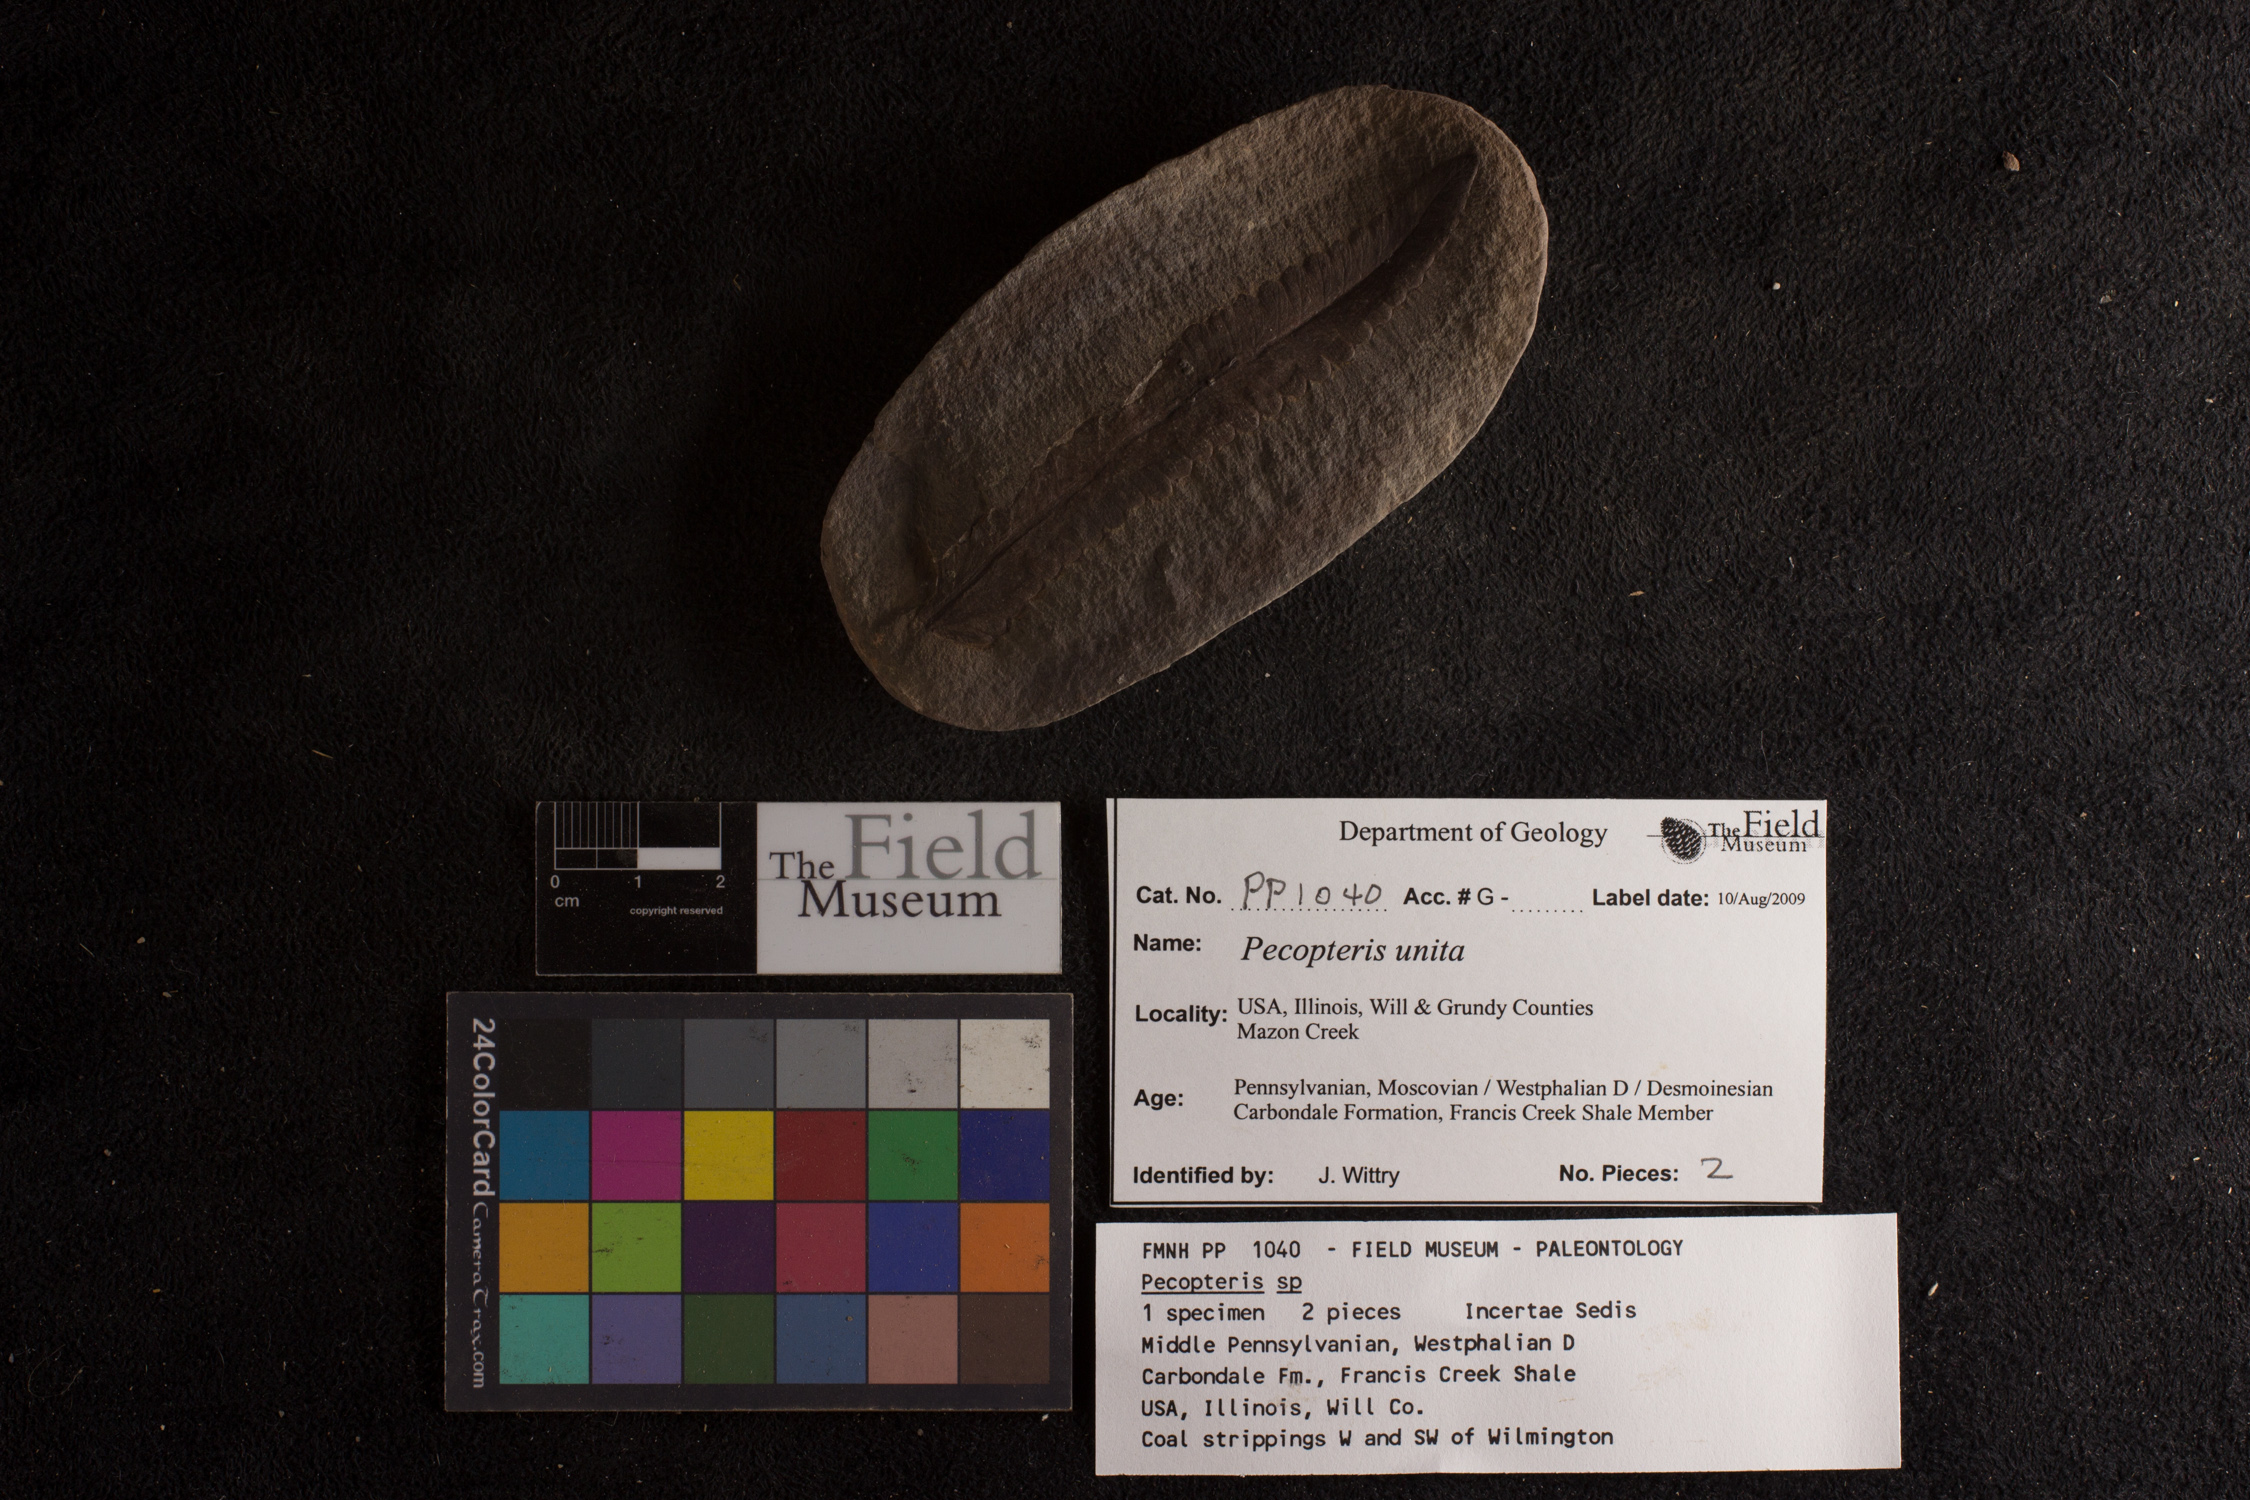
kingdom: Plantae
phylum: Tracheophyta
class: Polypodiopsida
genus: Diplazites
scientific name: Diplazites
